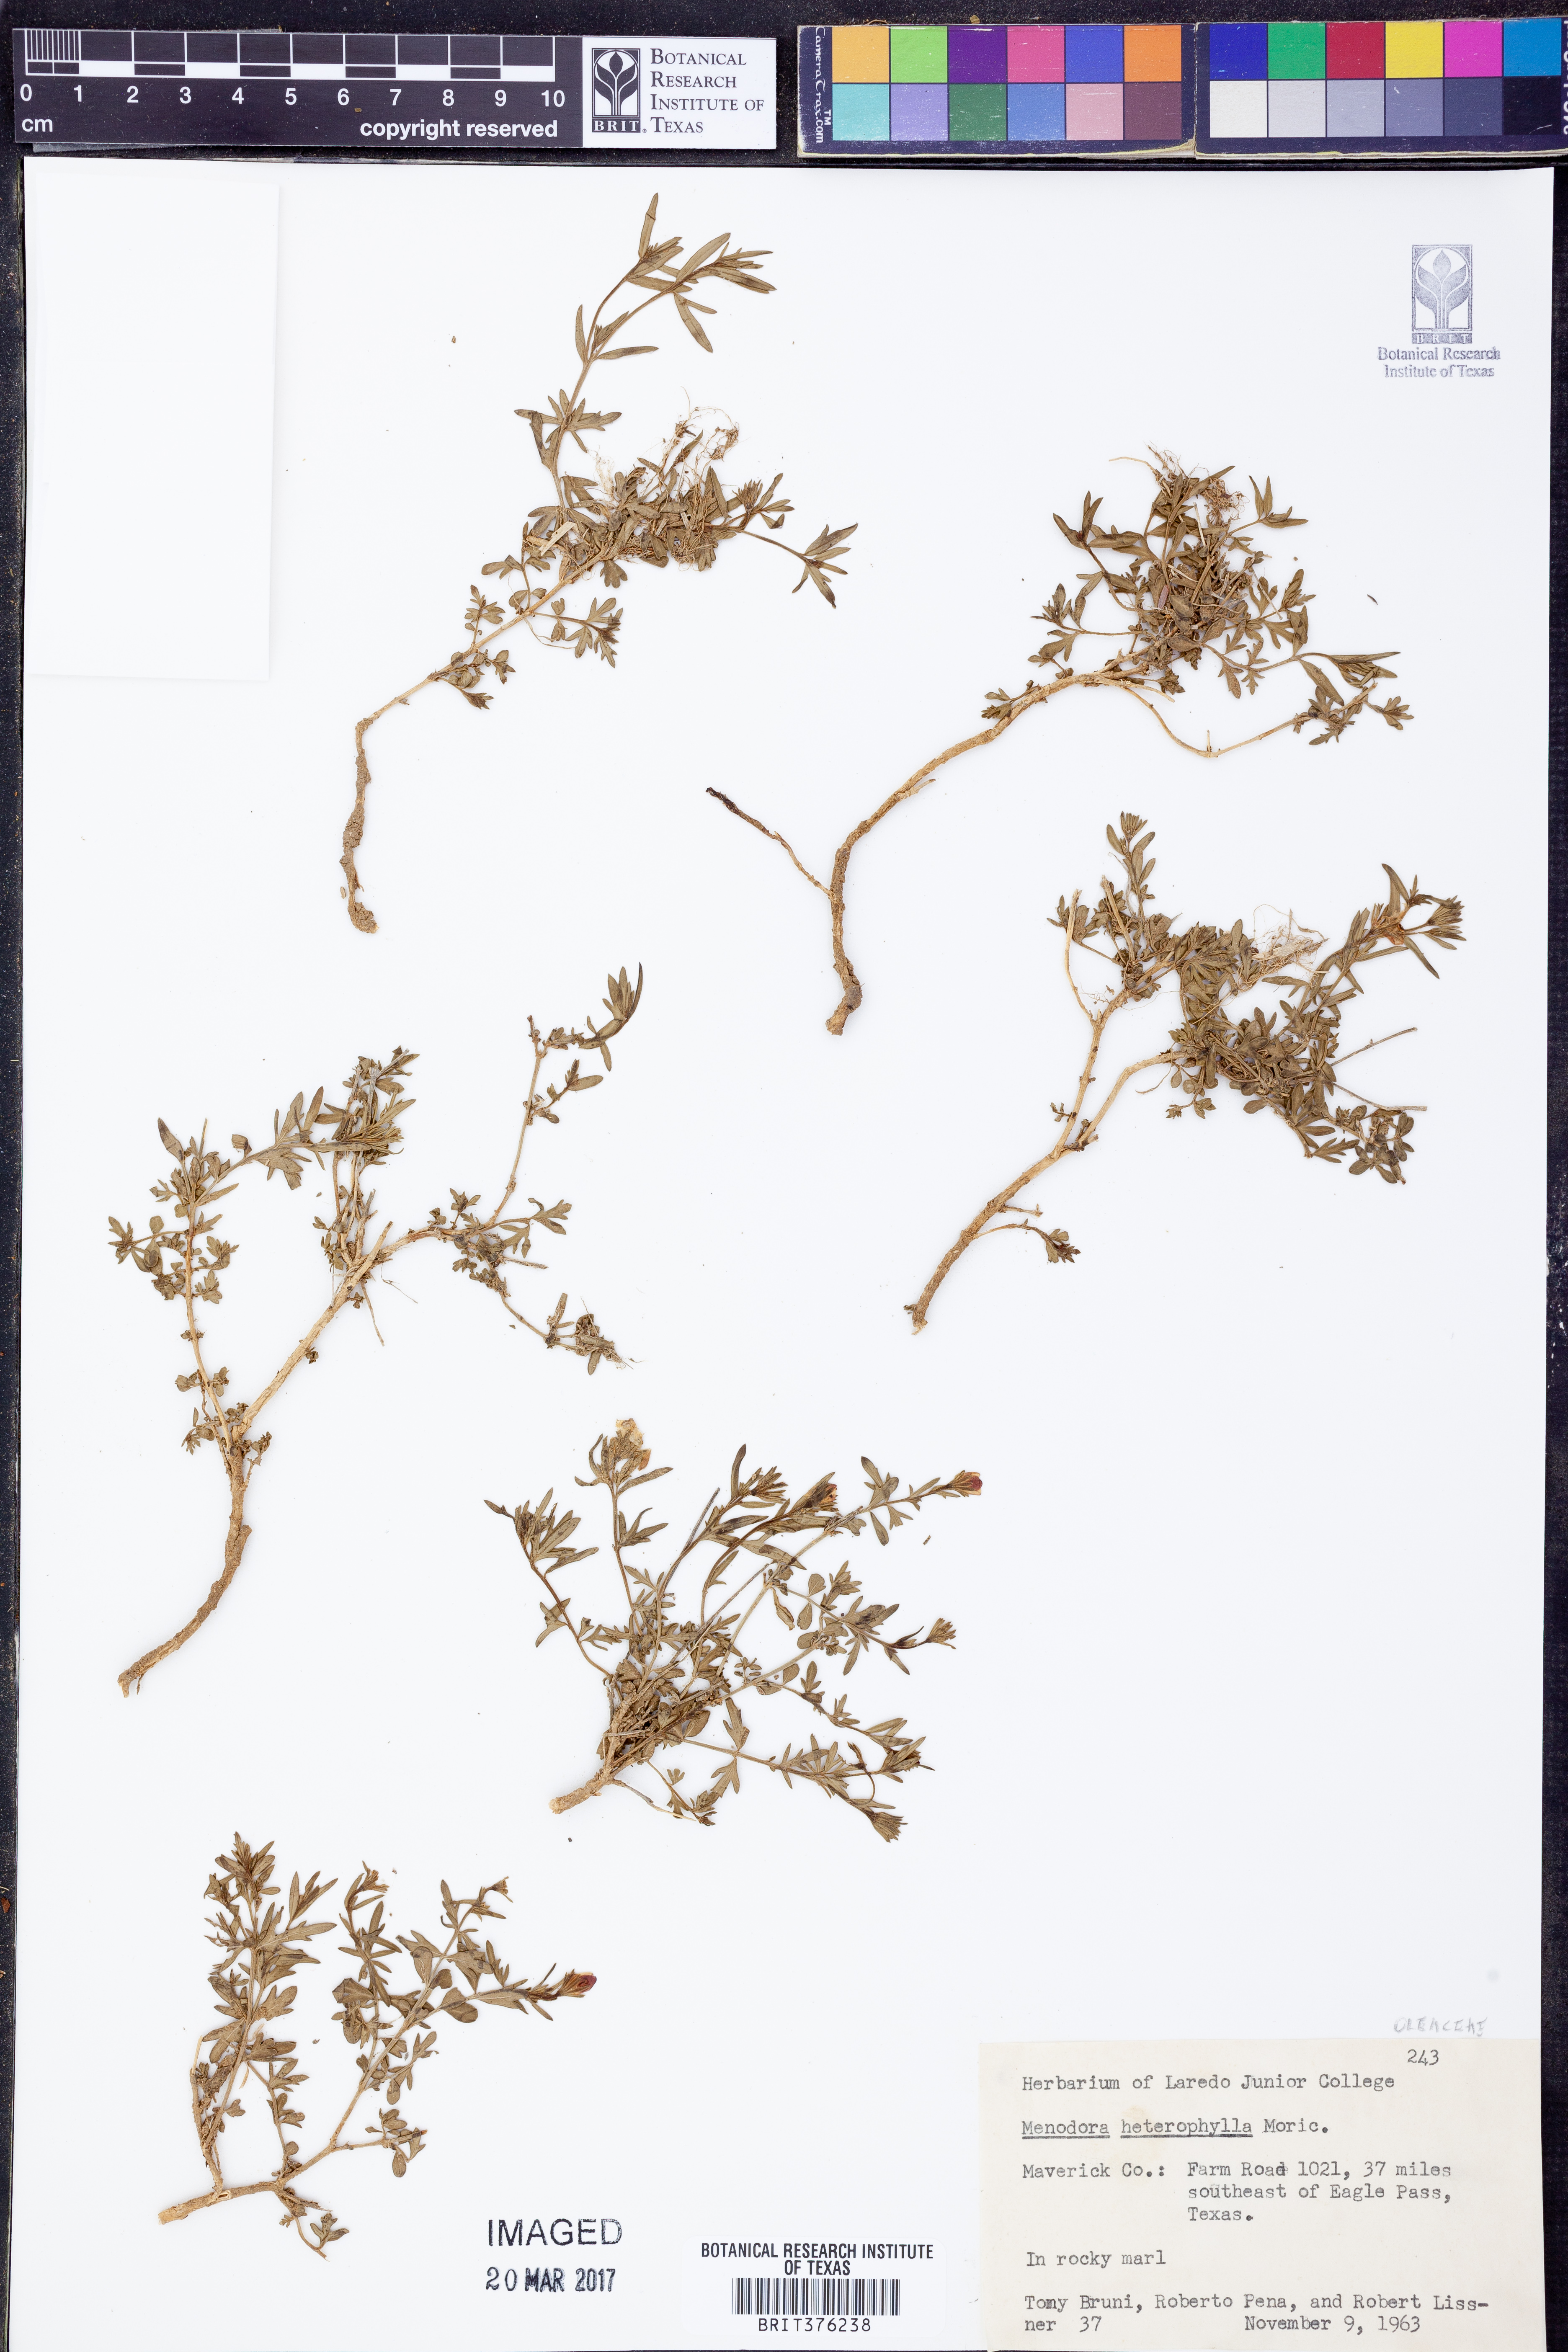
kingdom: Plantae
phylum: Tracheophyta
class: Magnoliopsida
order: Lamiales
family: Oleaceae
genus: Menodora
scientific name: Menodora heterophylla
